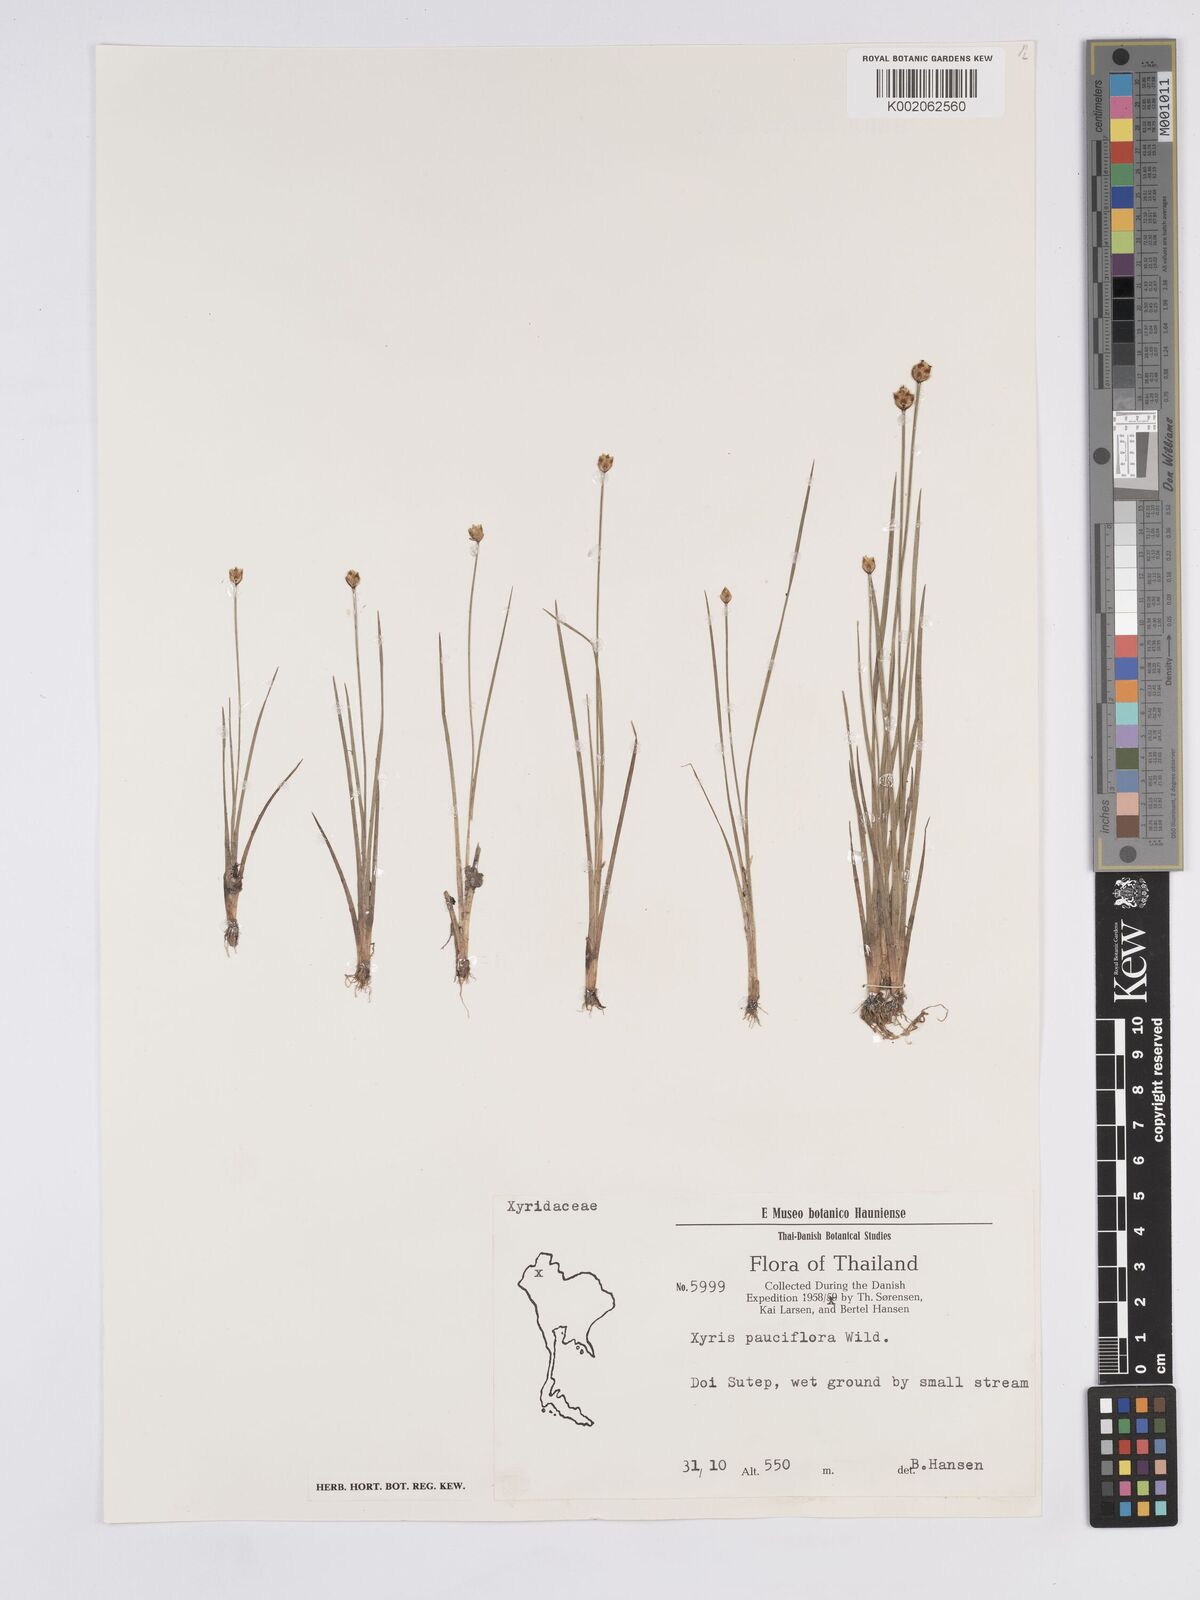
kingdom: Plantae
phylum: Tracheophyta
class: Liliopsida
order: Poales
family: Xyridaceae
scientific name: Xyridaceae
